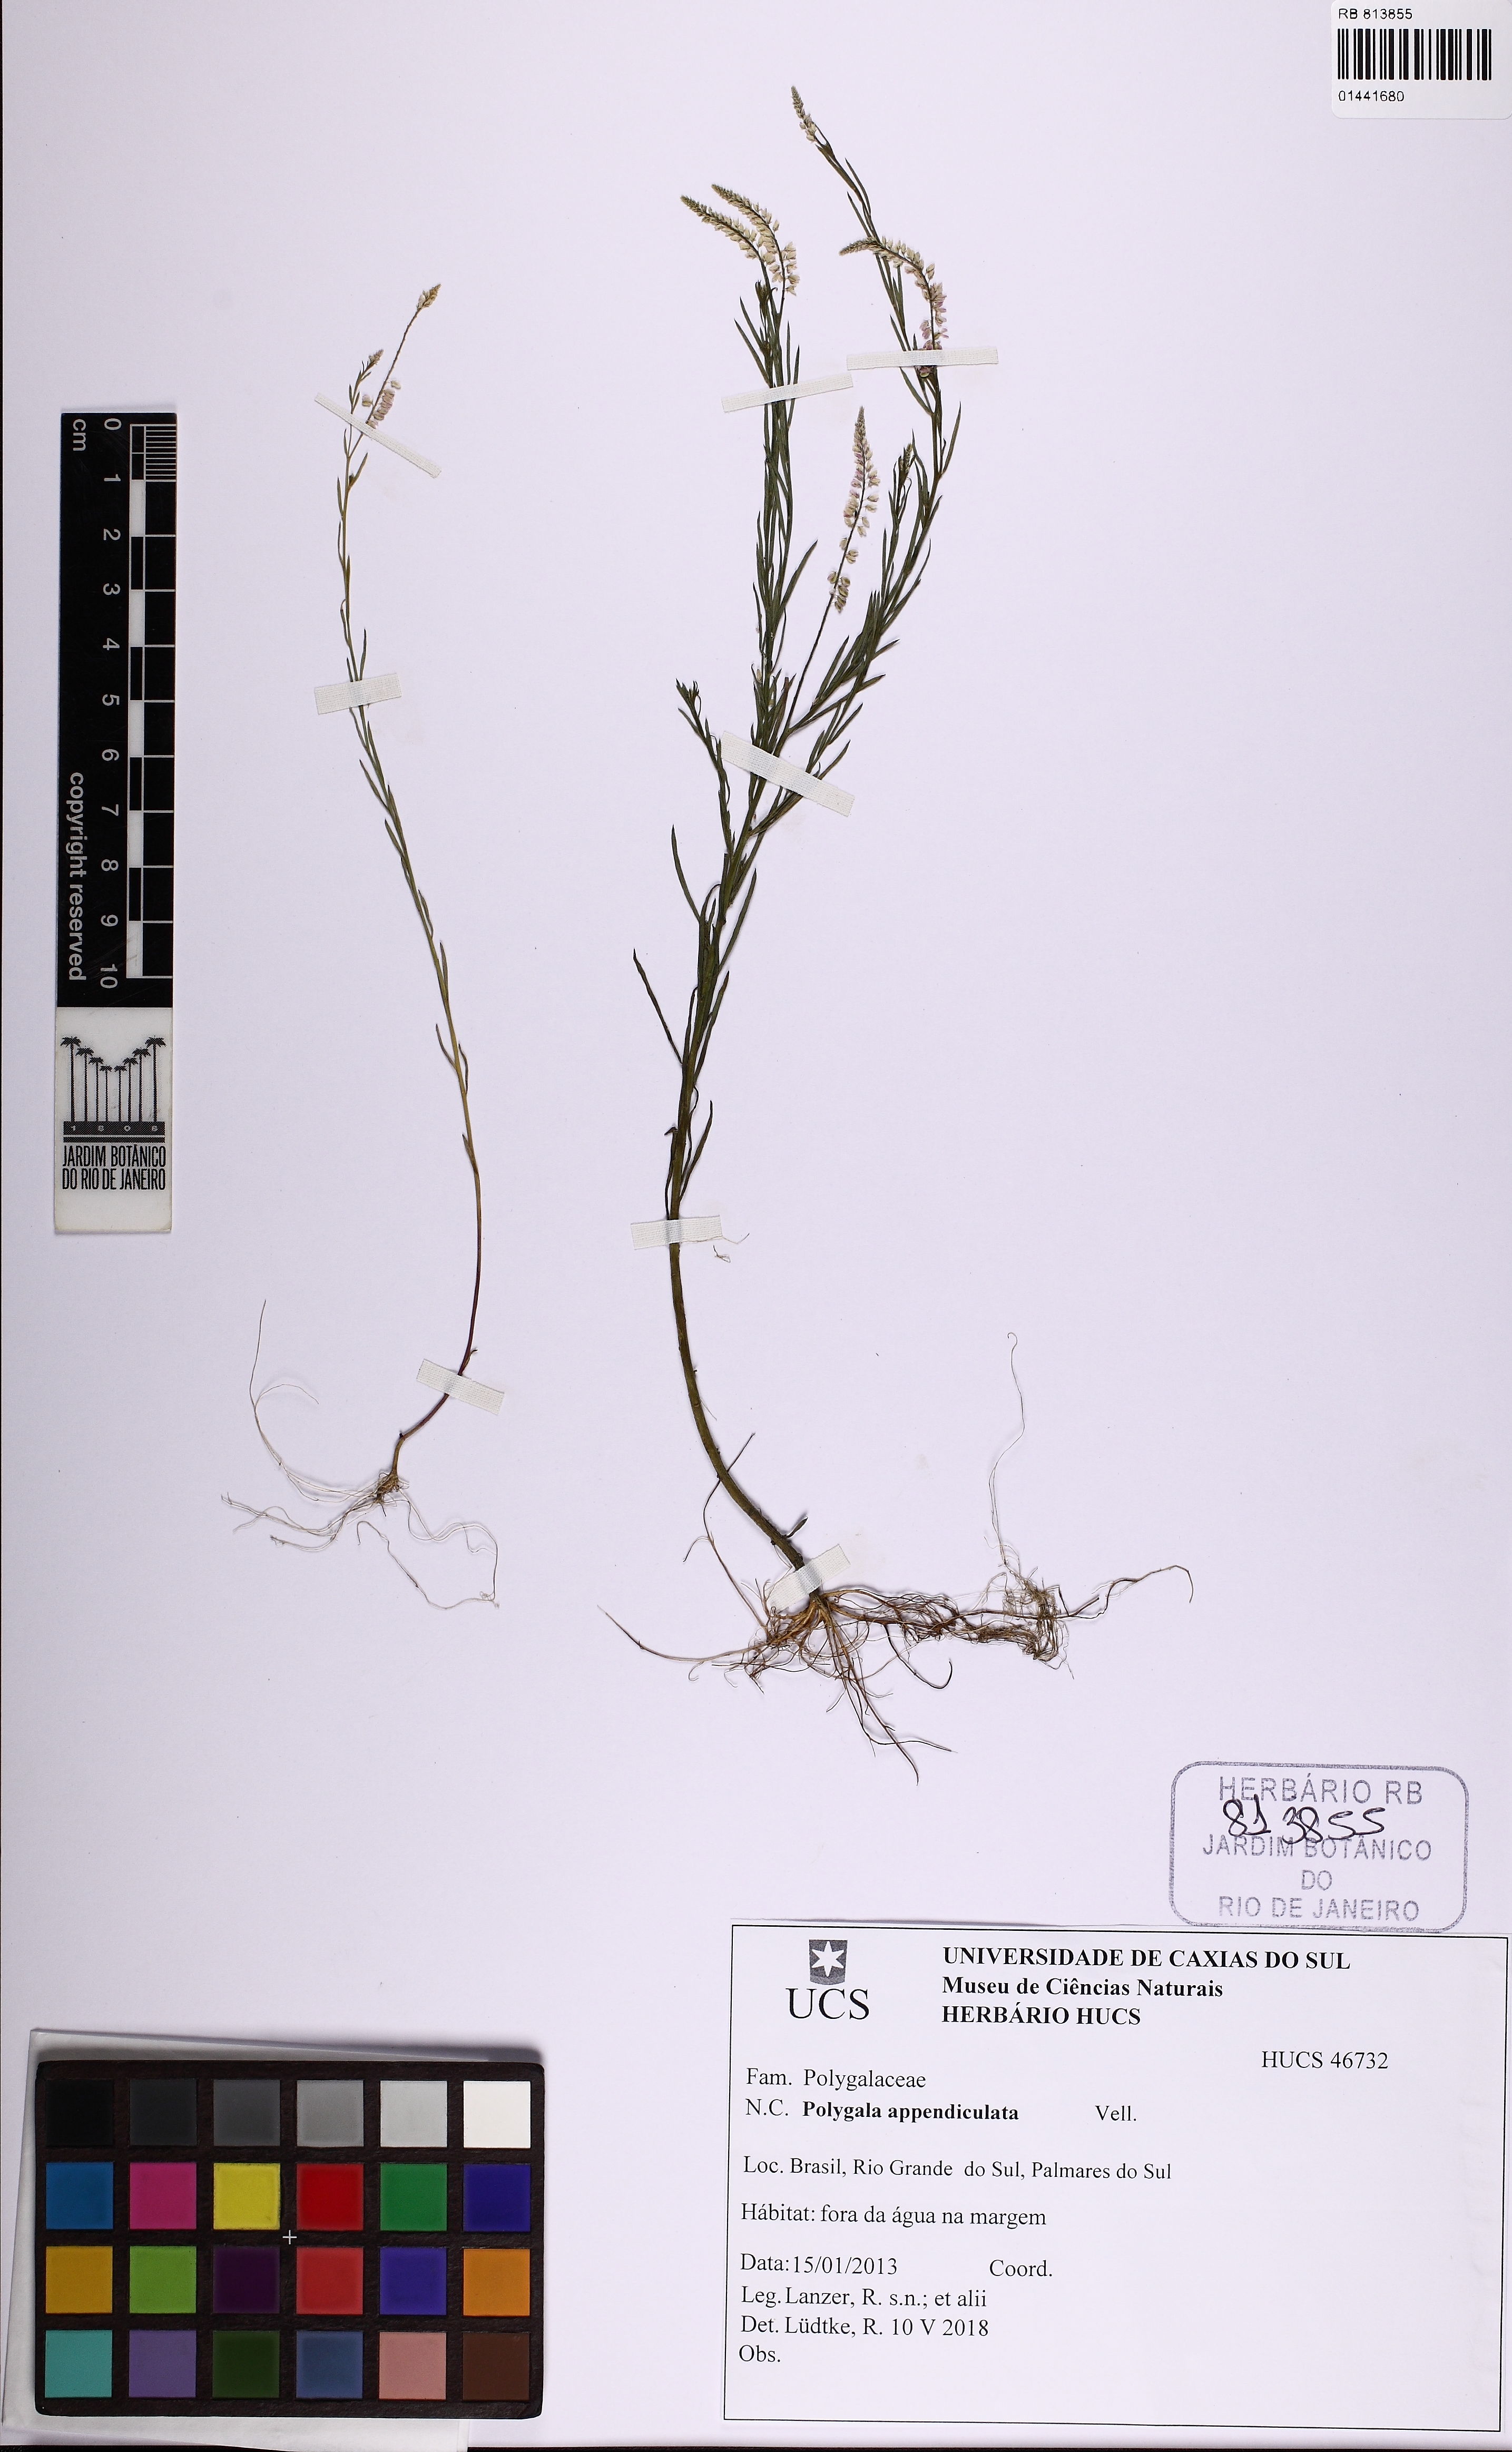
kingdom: Plantae
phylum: Tracheophyta
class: Magnoliopsida
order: Fabales
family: Polygalaceae
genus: Polygala
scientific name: Polygala tenella
